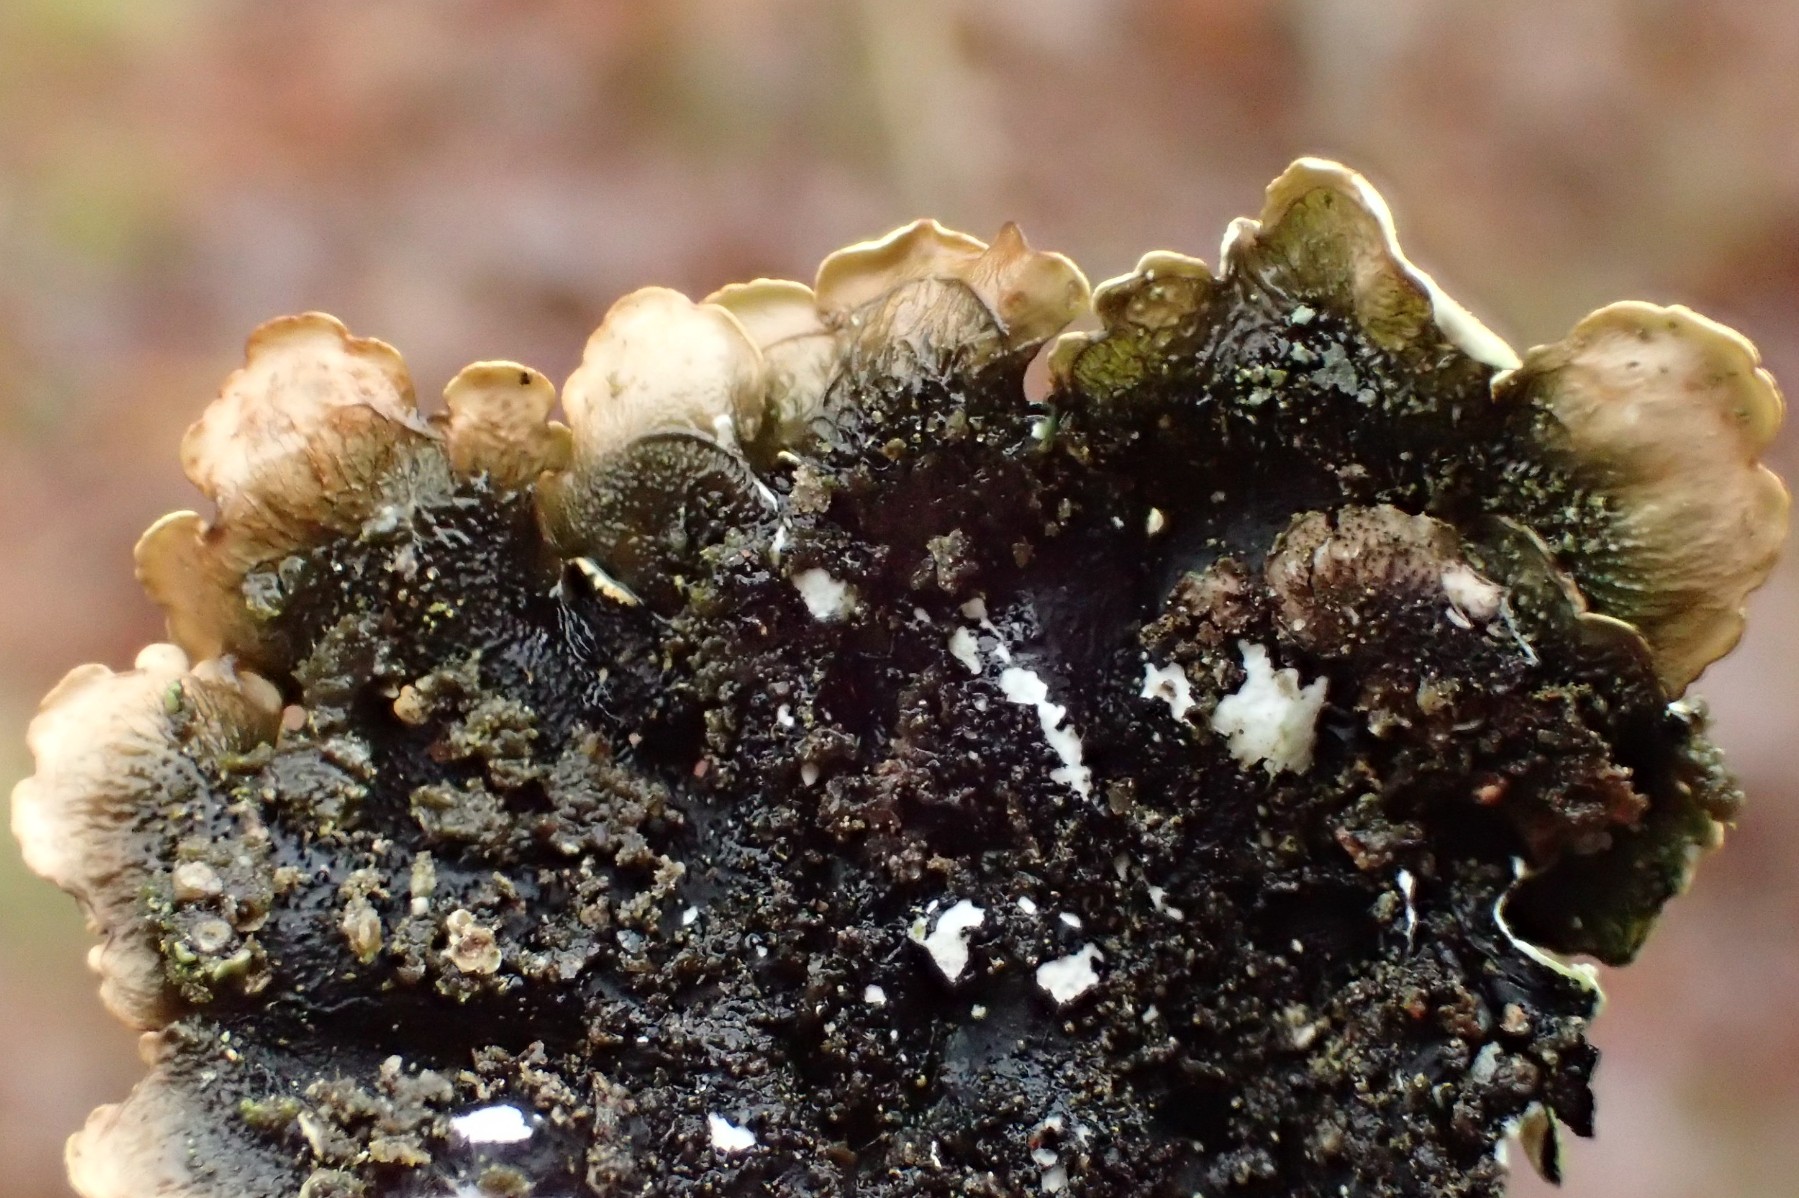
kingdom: Fungi
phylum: Ascomycota
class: Lecanoromycetes
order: Lecanorales
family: Parmeliaceae
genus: Flavoparmelia
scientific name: Flavoparmelia caperata
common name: gulgrøn skållav
